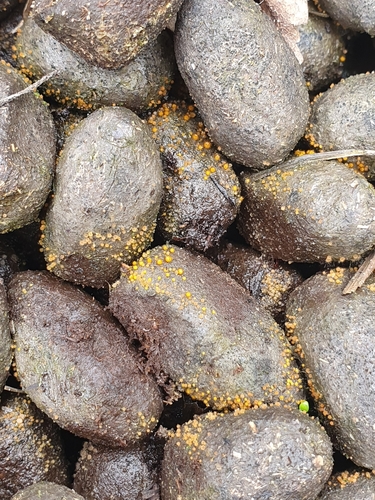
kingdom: Fungi
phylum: Ascomycota
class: Pezizomycetes
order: Pezizales
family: Pyronemataceae
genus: Cheilymenia
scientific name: Cheilymenia stercorea
